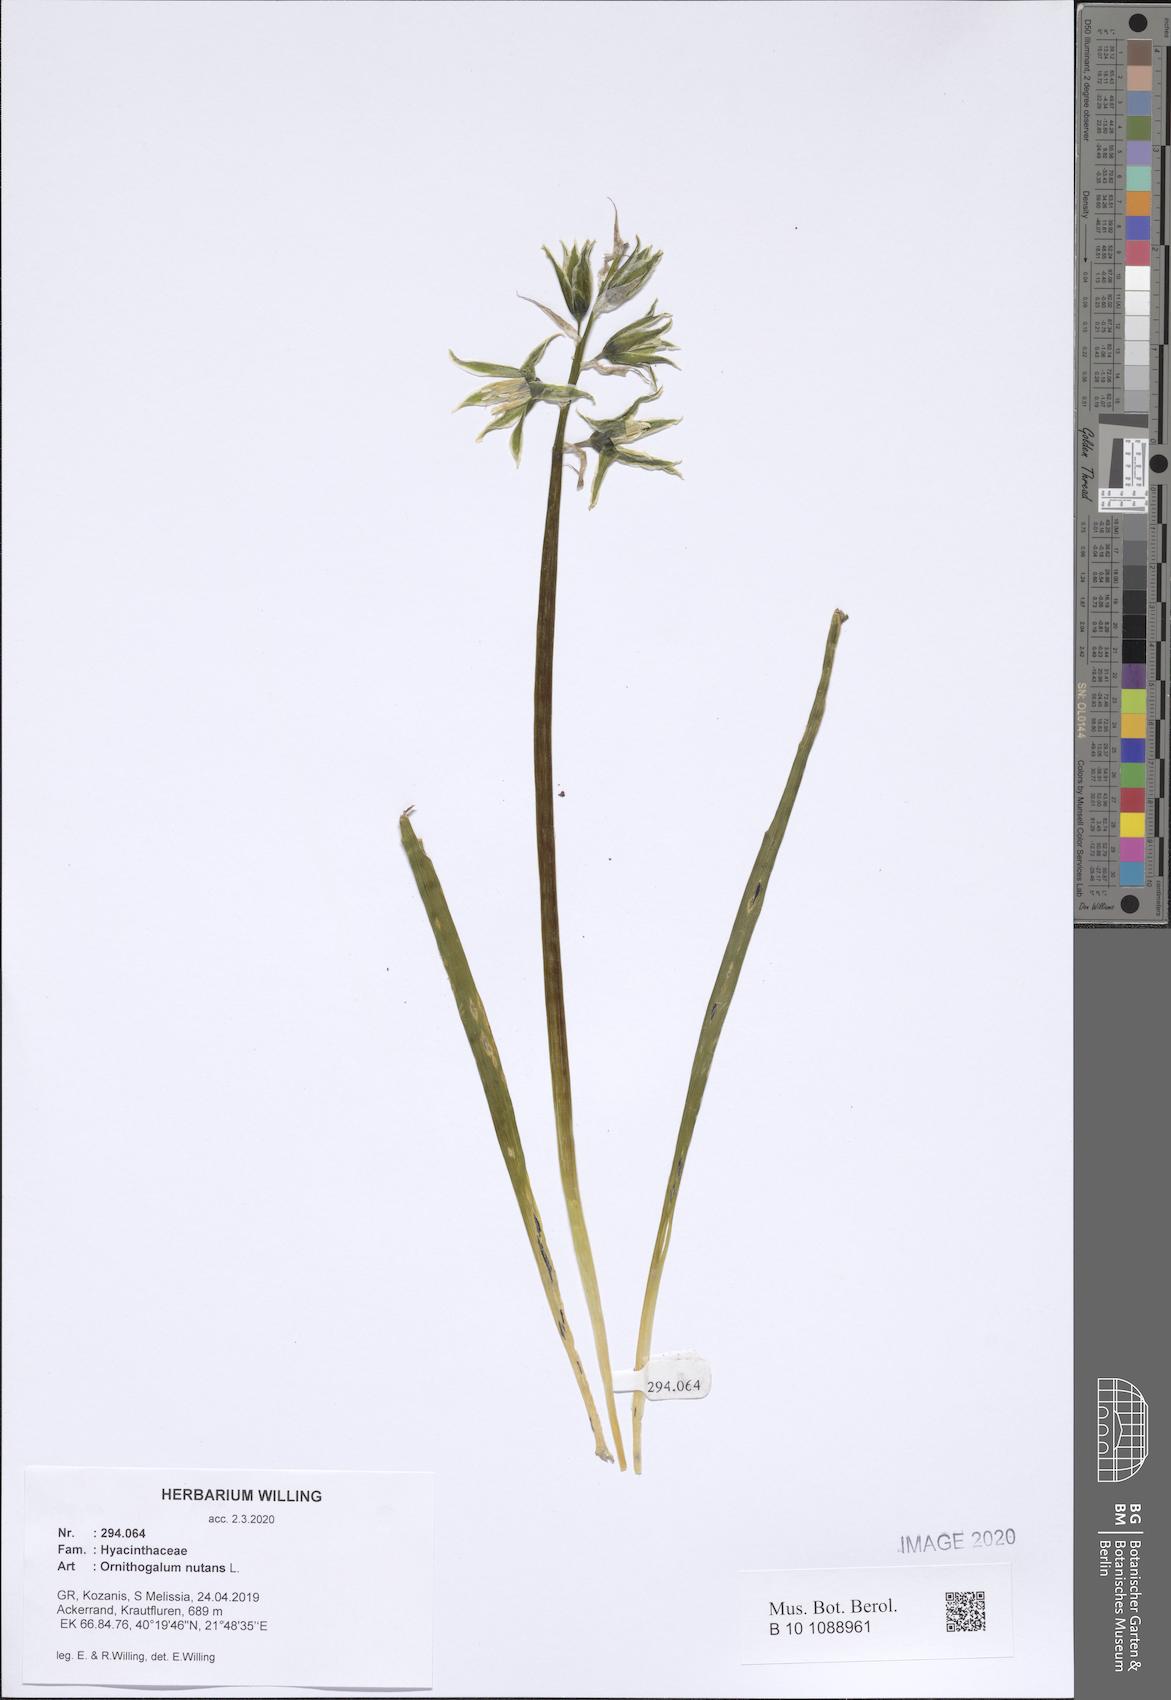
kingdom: Plantae
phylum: Tracheophyta
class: Liliopsida
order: Asparagales
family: Asparagaceae
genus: Ornithogalum
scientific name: Ornithogalum nutans
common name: Drooping star-of-bethlehem
